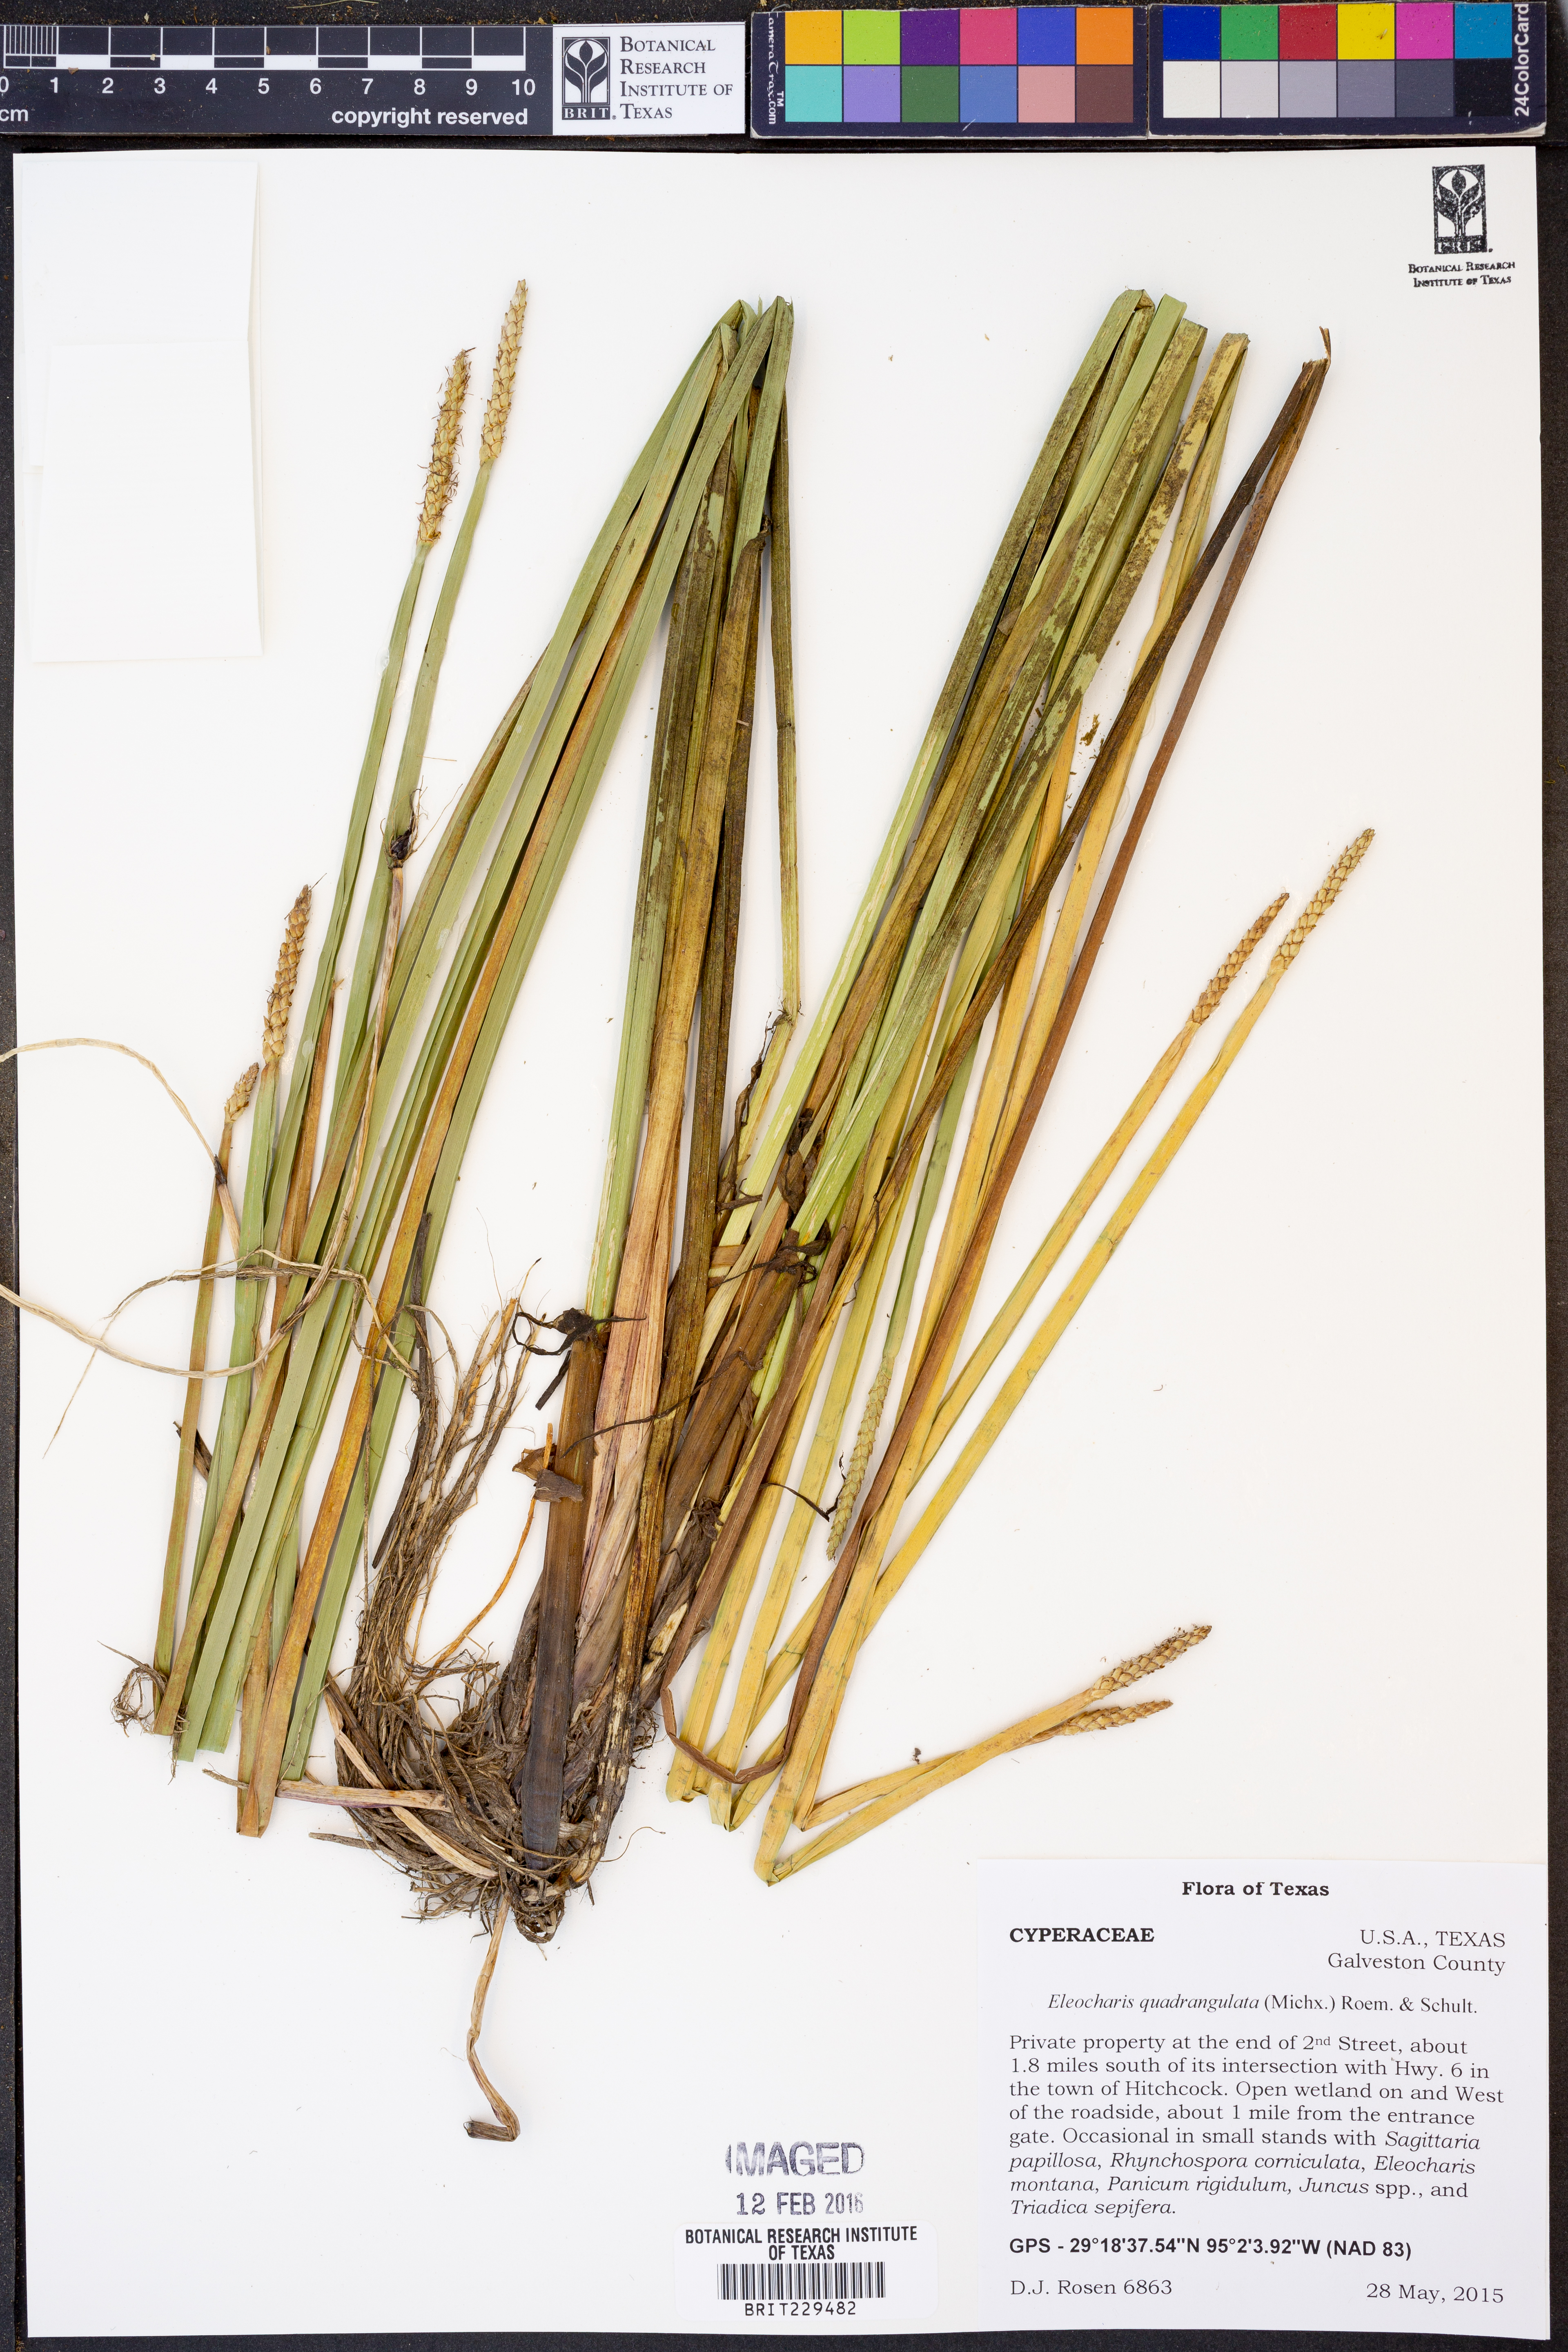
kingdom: Plantae
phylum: Tracheophyta
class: Liliopsida
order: Poales
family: Cyperaceae
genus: Eleocharis
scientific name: Eleocharis quadrangulata
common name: Square-stem spike-rush
